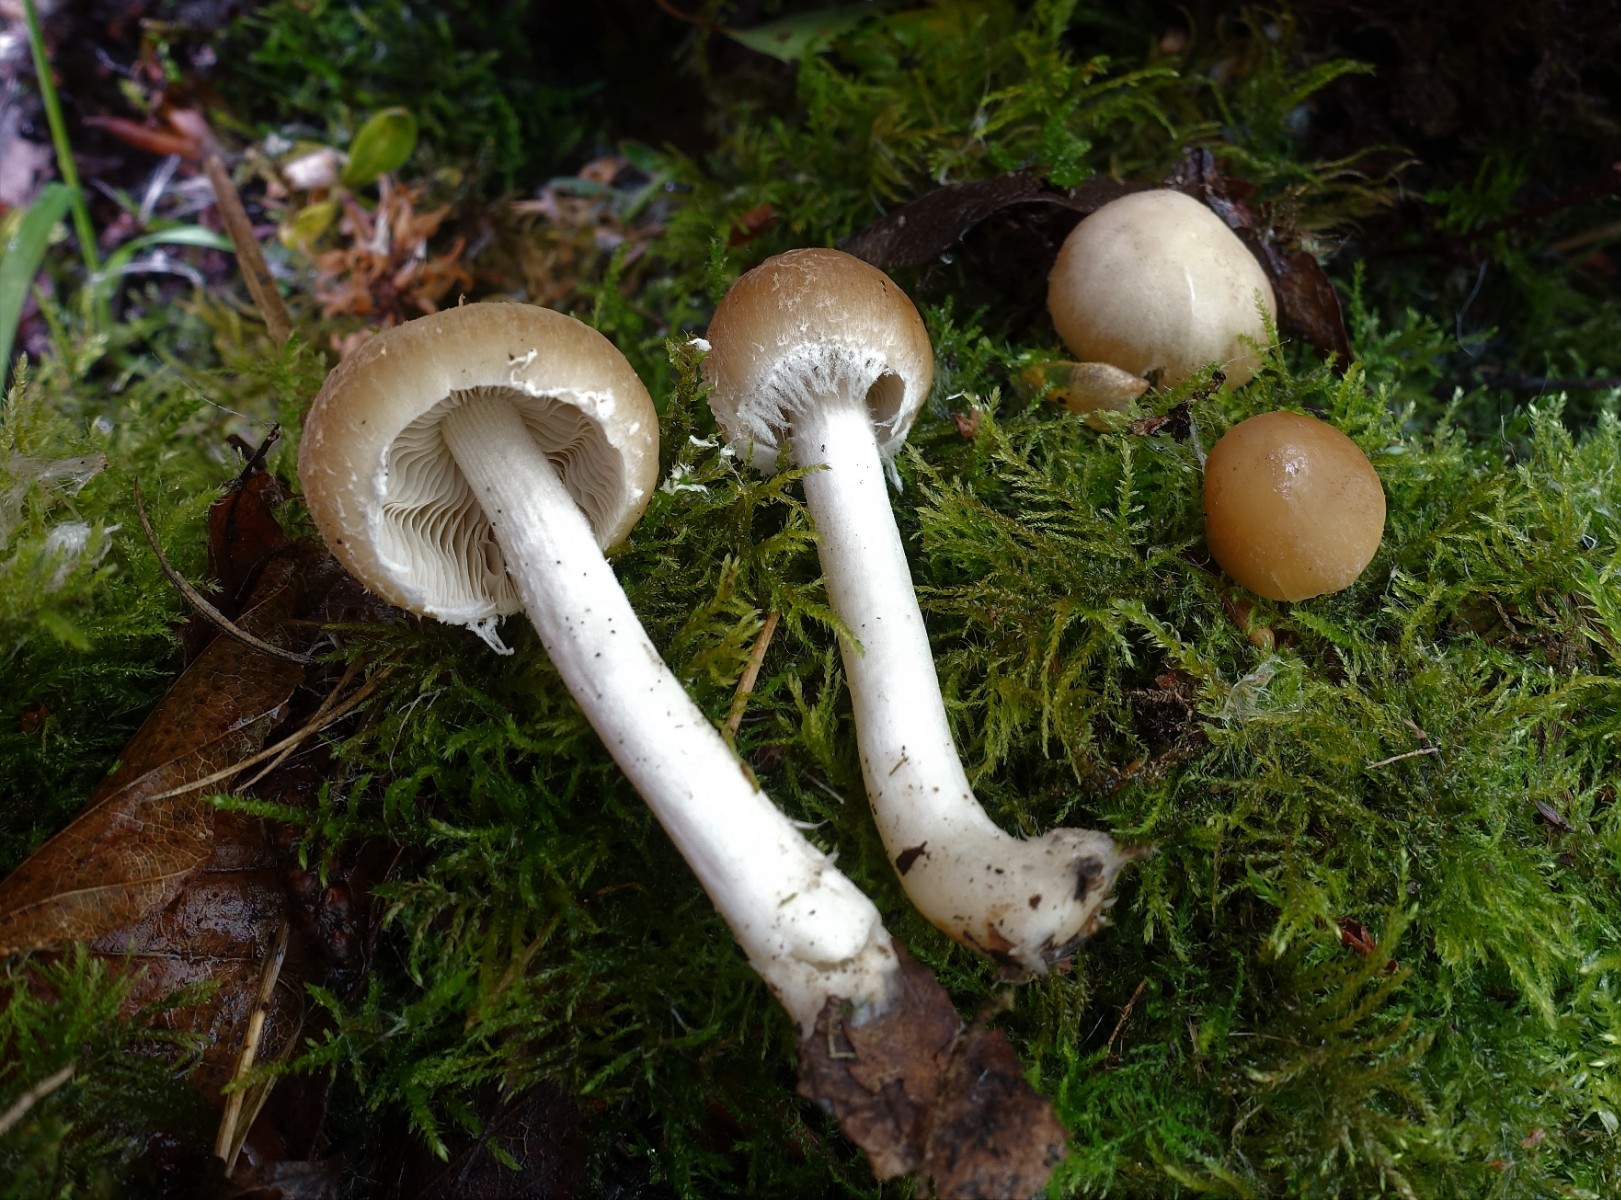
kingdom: Fungi
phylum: Basidiomycota
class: Agaricomycetes
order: Agaricales
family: Psathyrellaceae
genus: Candolleomyces
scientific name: Candolleomyces candolleanus
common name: Candolles mørkhat
